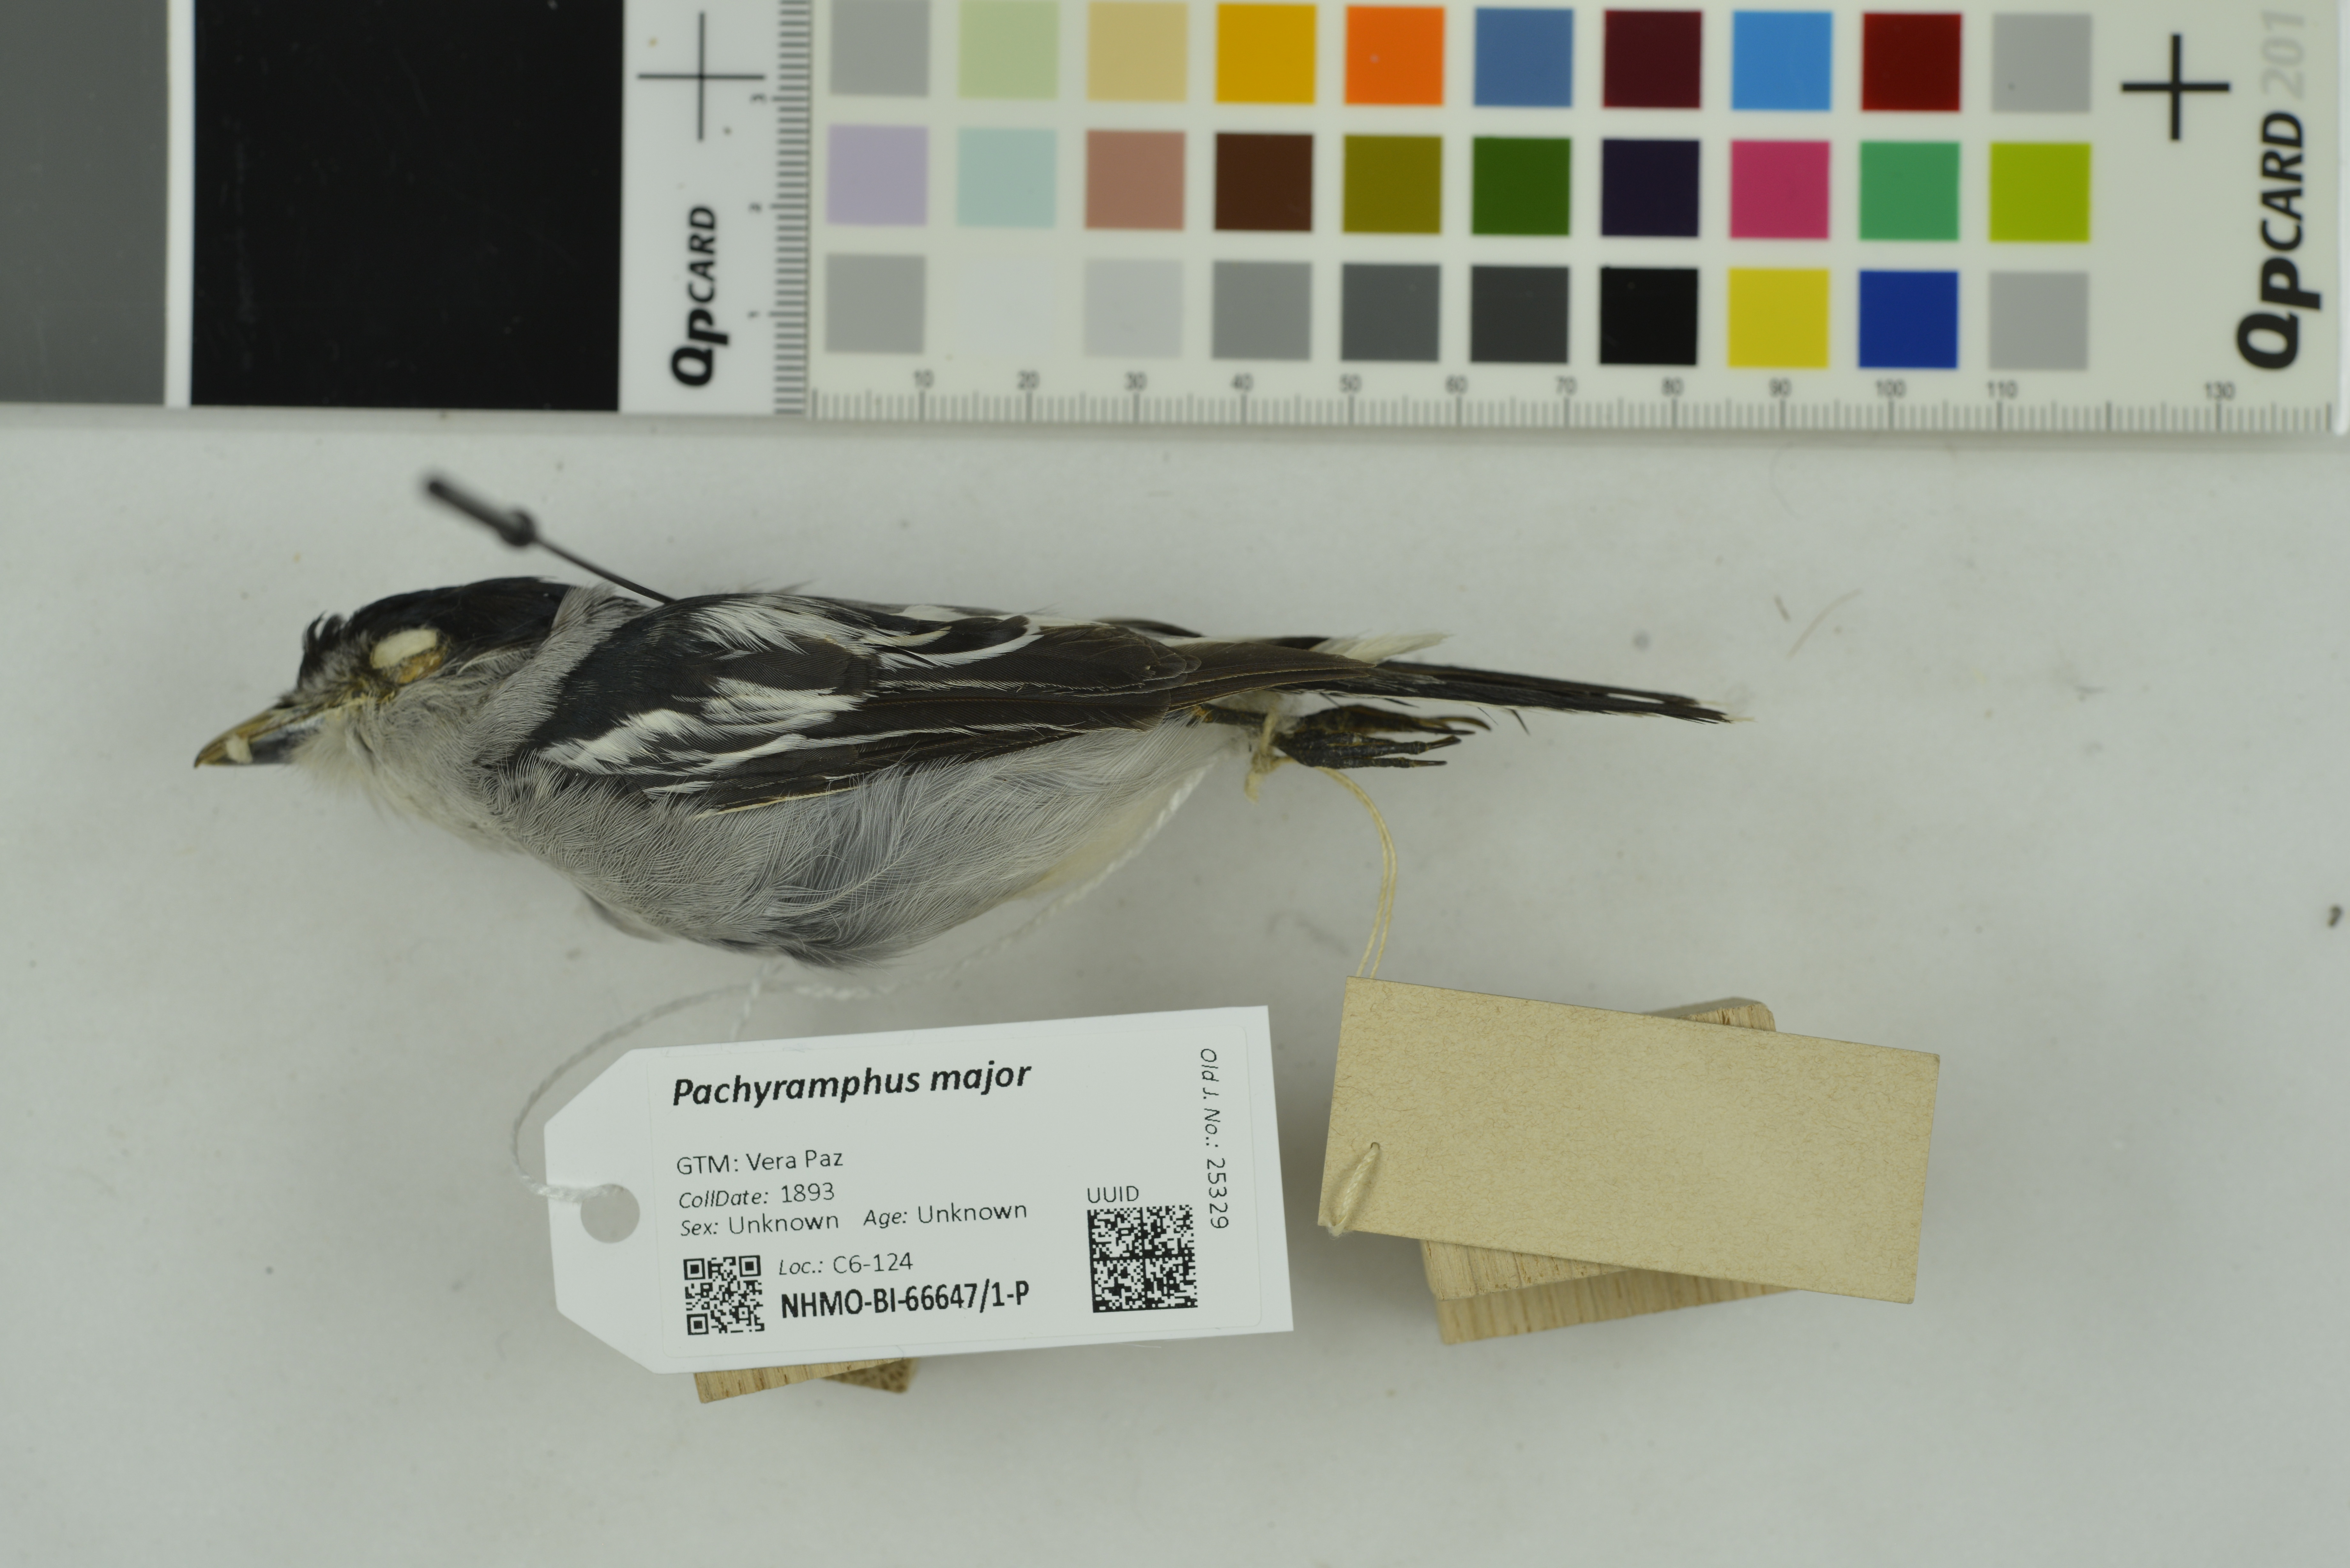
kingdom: Animalia
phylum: Chordata
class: Aves
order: Passeriformes
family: Cotingidae
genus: Pachyramphus
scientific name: Pachyramphus major
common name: Gray-collared becard
